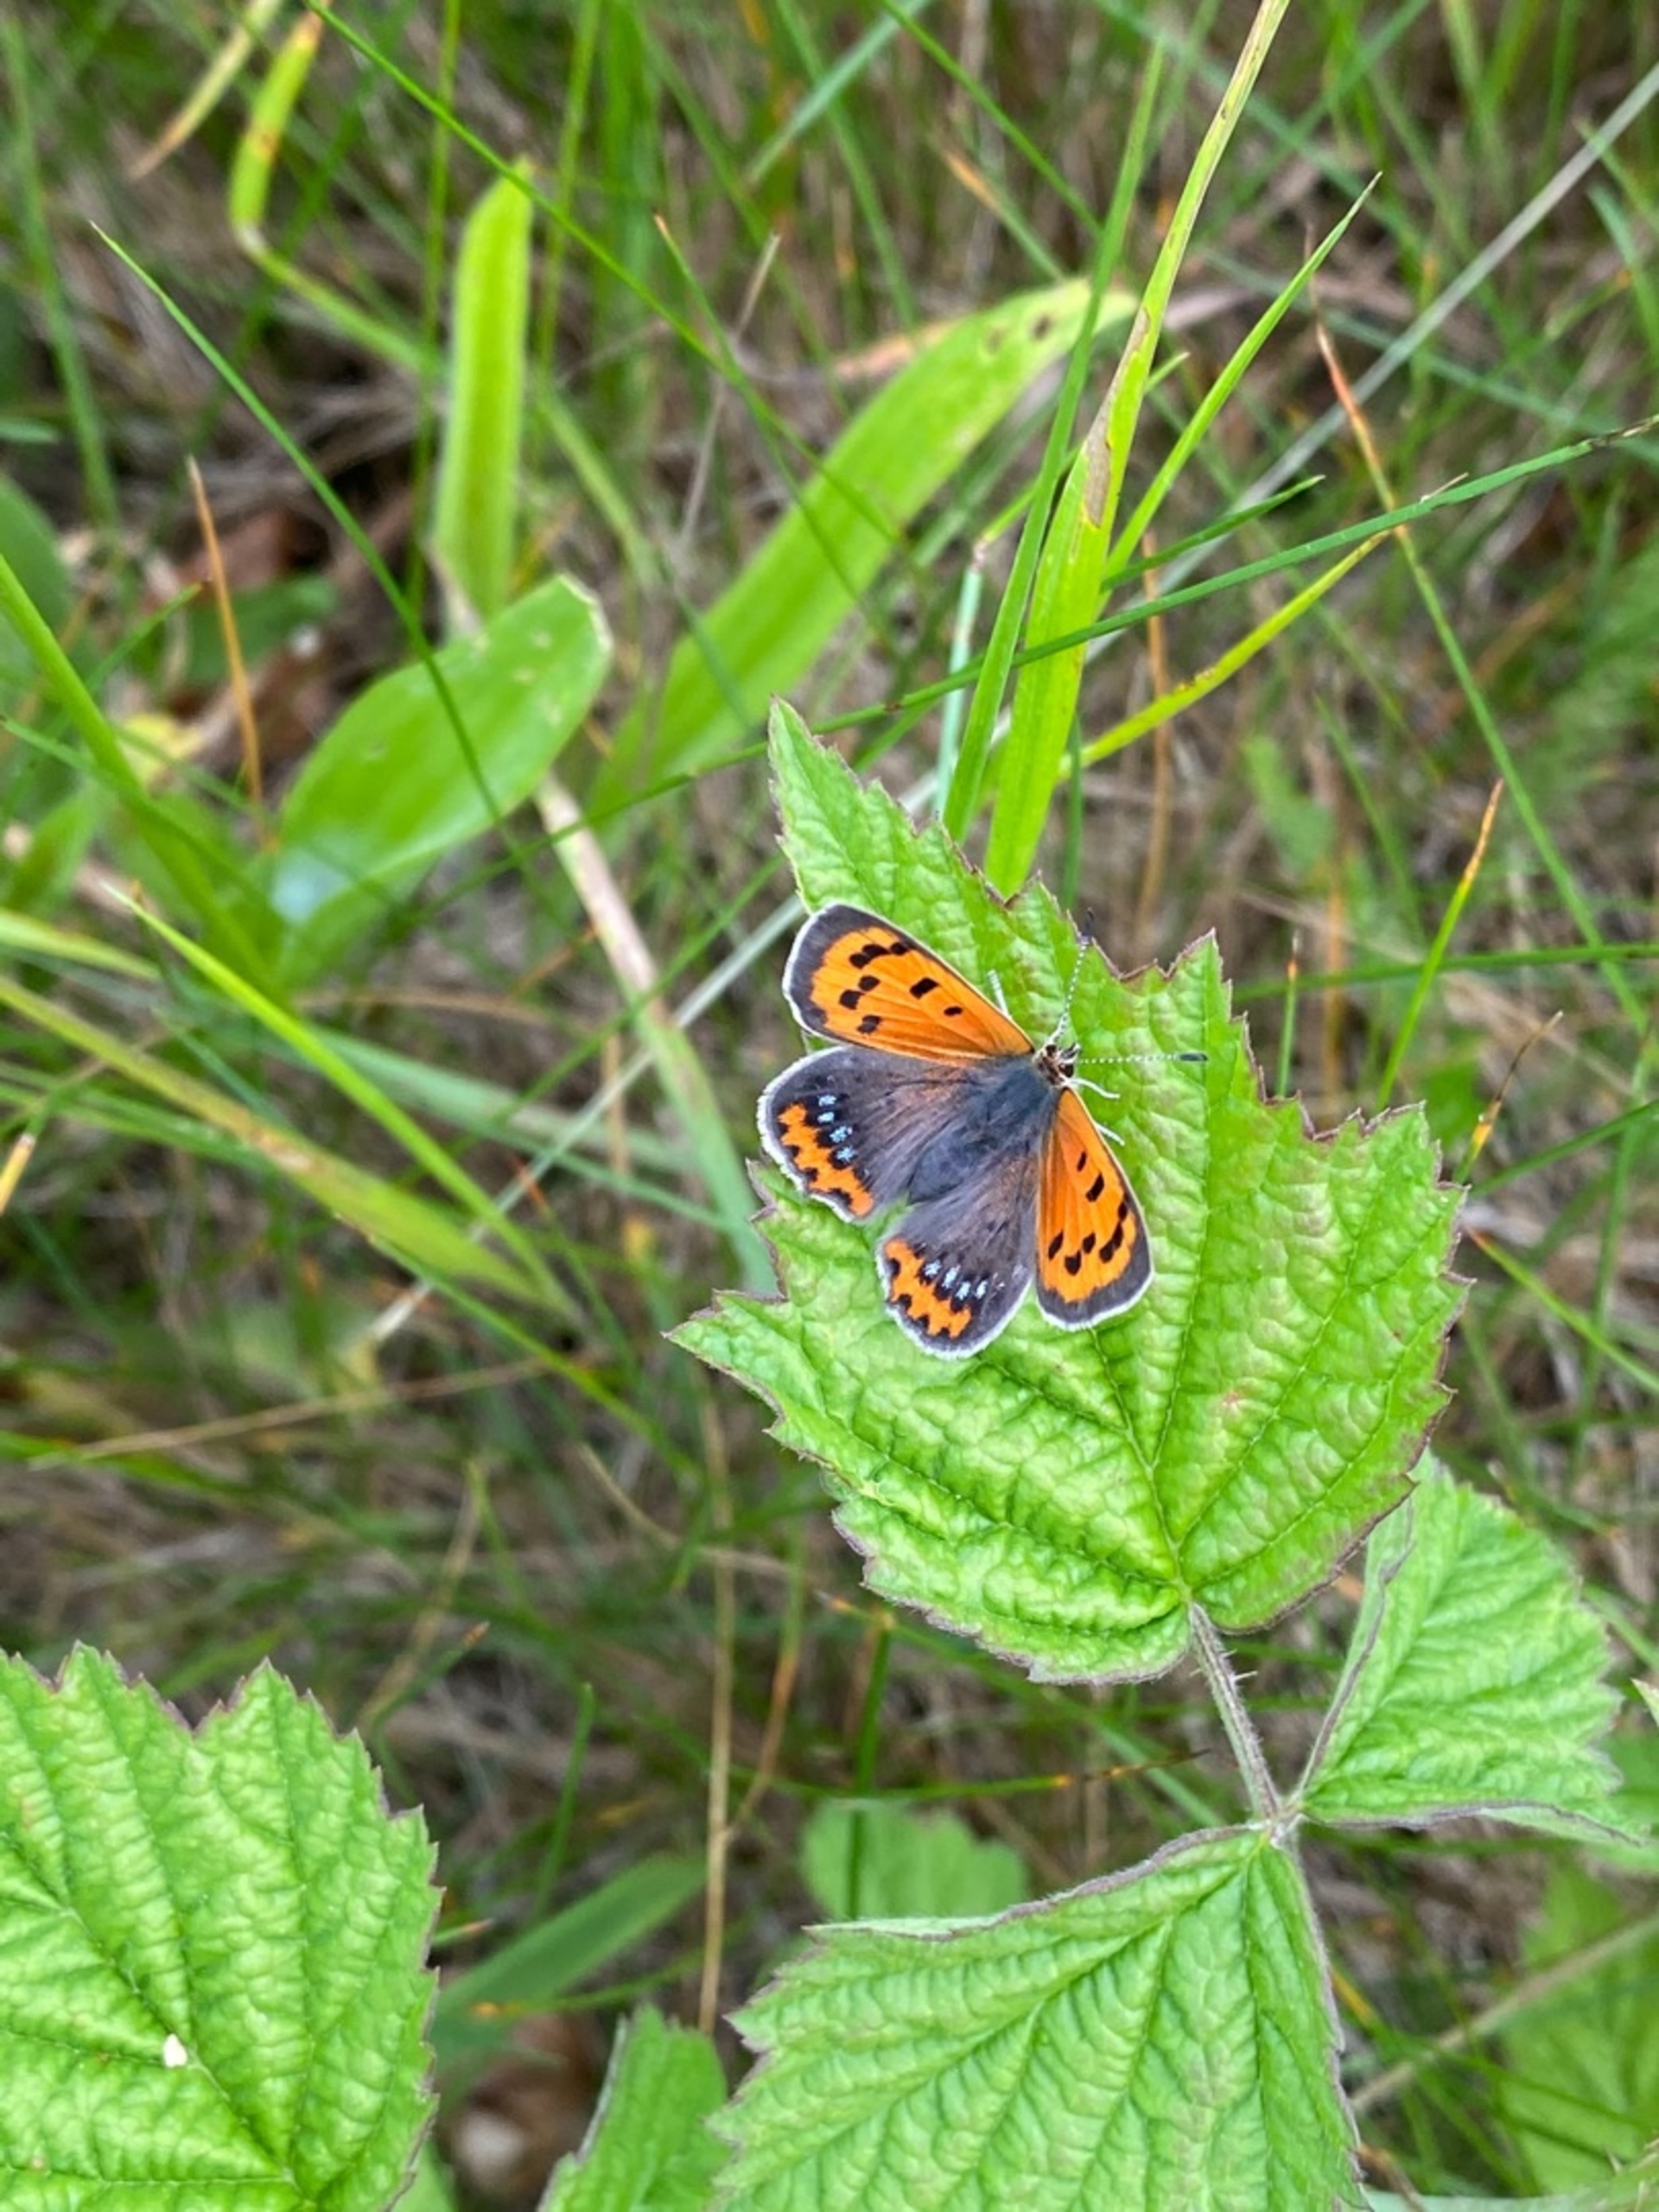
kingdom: Animalia
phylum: Arthropoda
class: Insecta
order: Lepidoptera
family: Lycaenidae
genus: Lycaena
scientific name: Lycaena phlaeas
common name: Lille ildfugl
